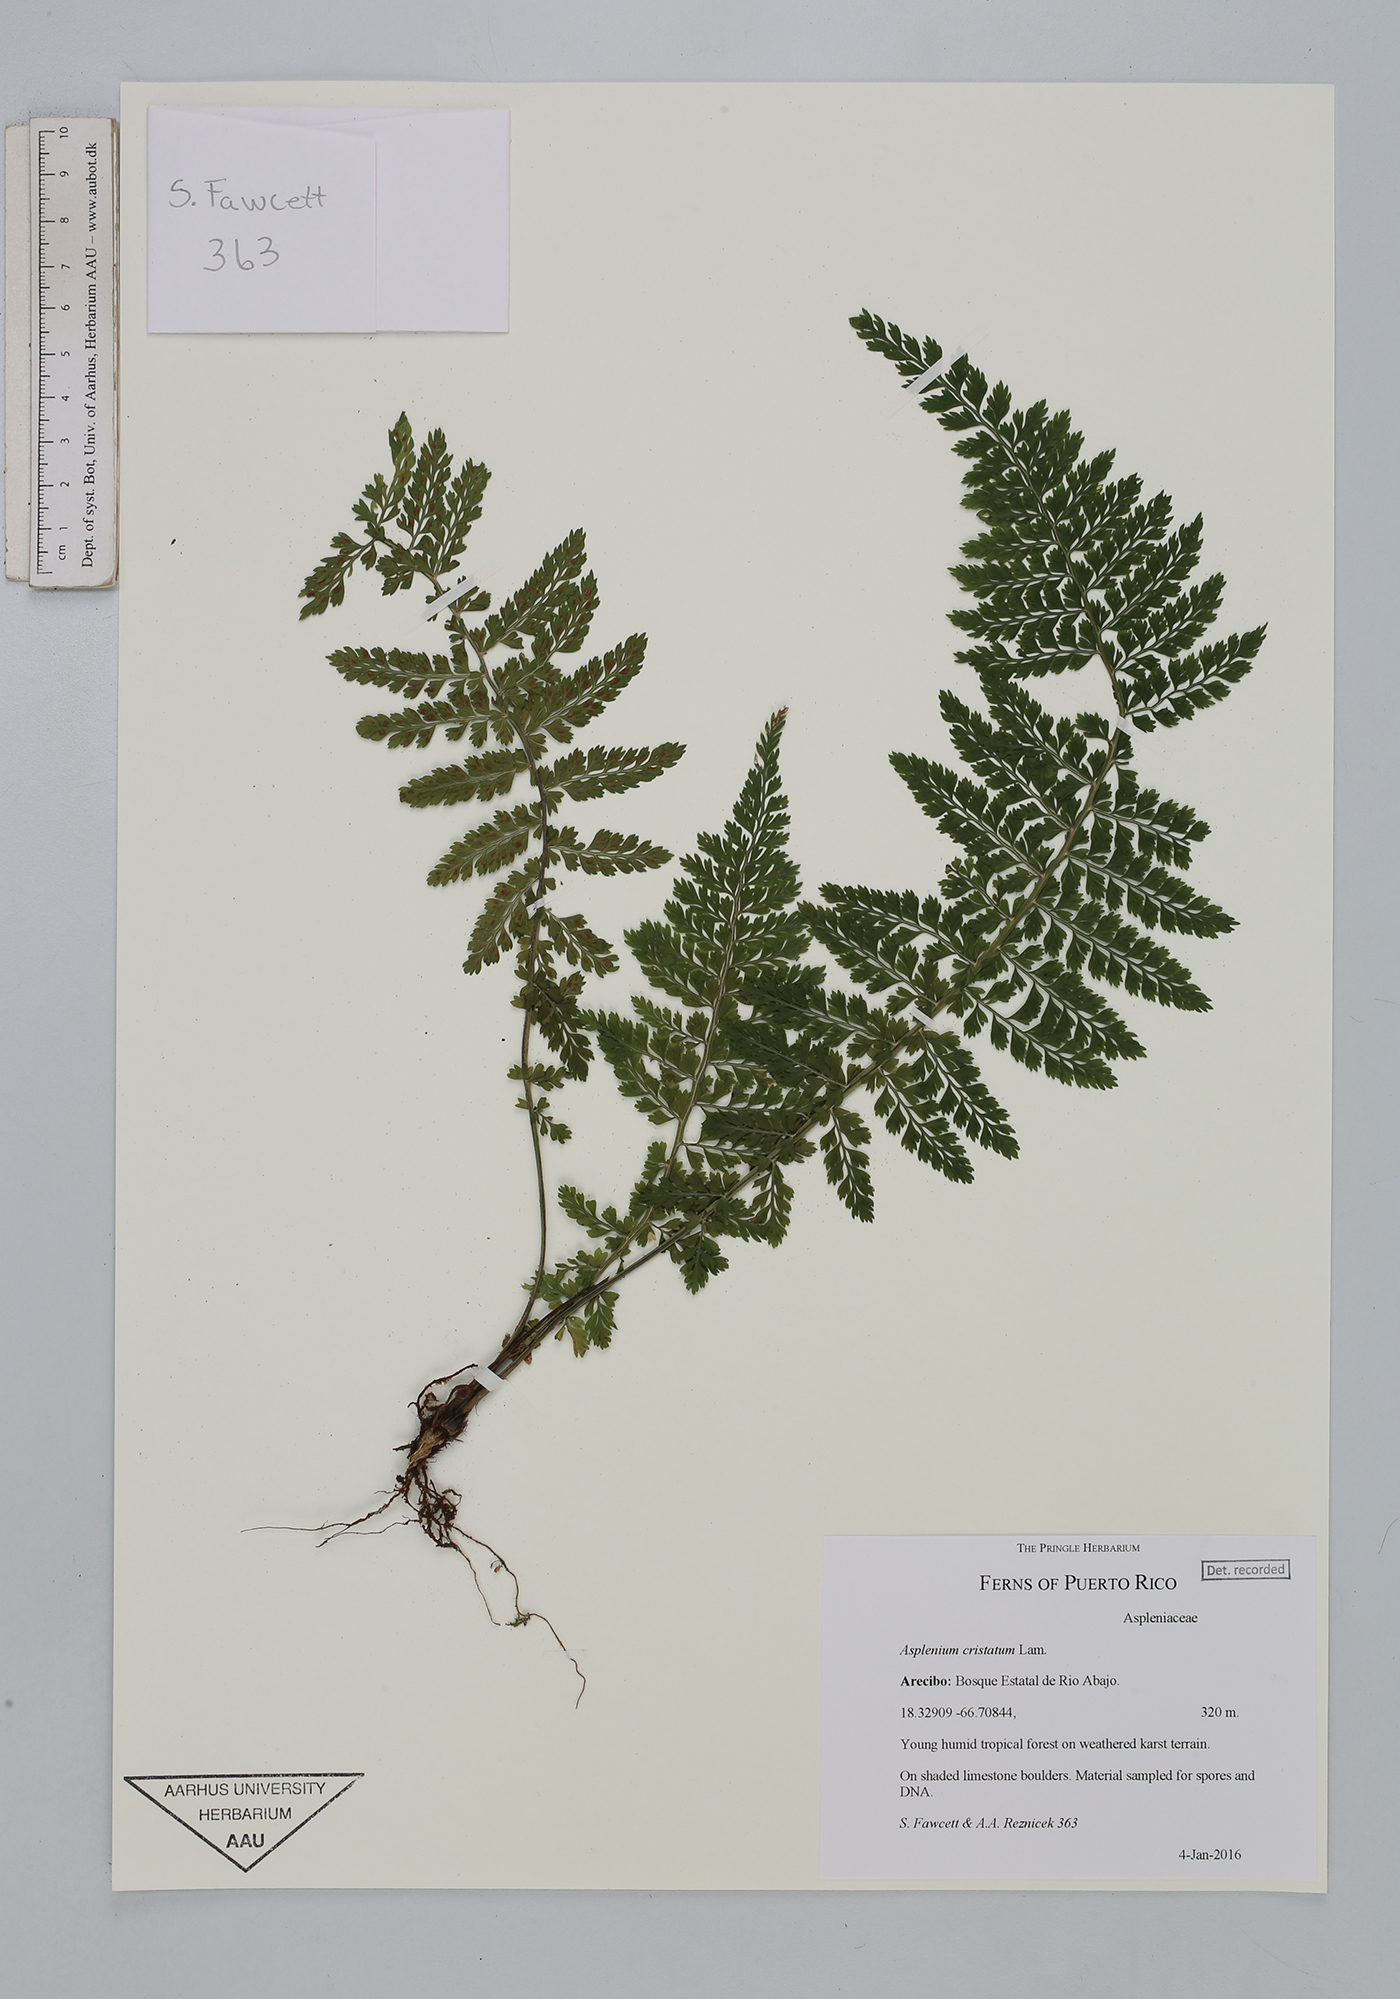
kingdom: Plantae
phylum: Tracheophyta
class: Polypodiopsida
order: Polypodiales
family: Aspleniaceae
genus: Asplenium
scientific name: Asplenium cristatum
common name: Parsley spleenwort
